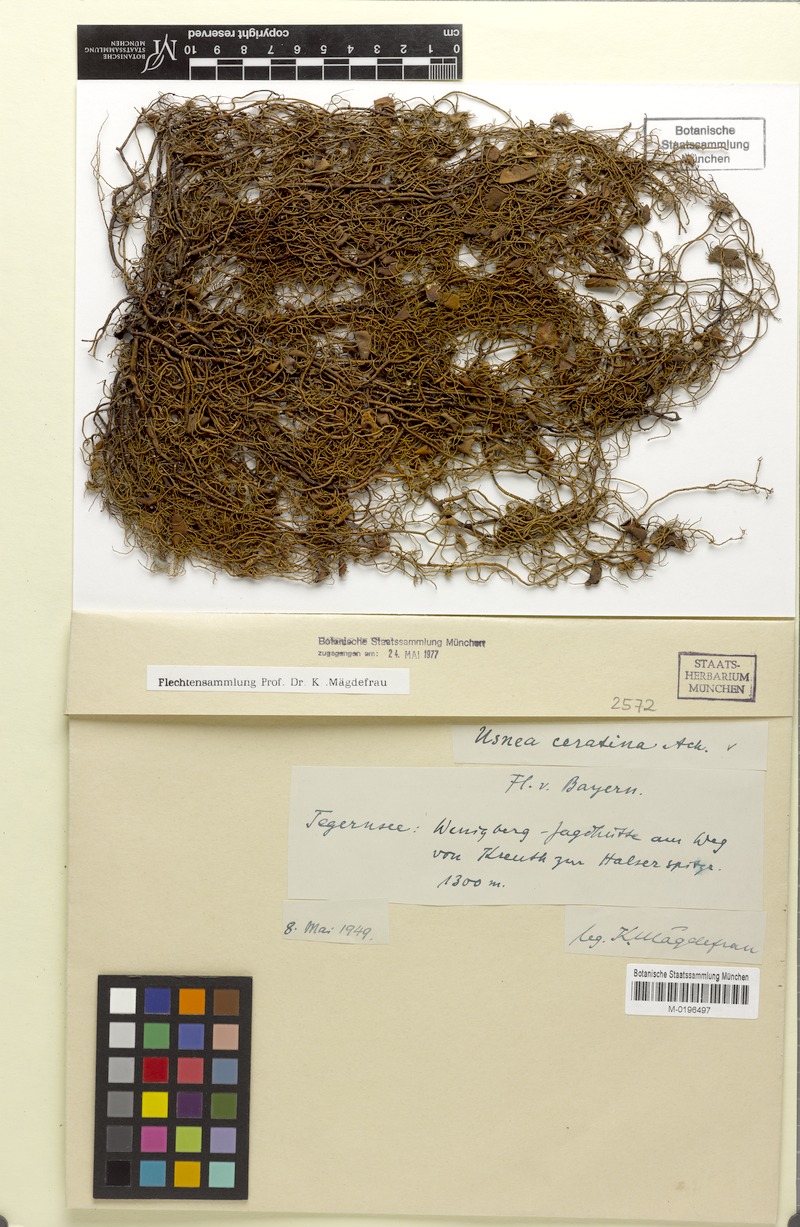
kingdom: Fungi
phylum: Ascomycota
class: Lecanoromycetes
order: Lecanorales
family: Parmeliaceae
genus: Usnea
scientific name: Usnea ceratina
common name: Warty beard lichen
